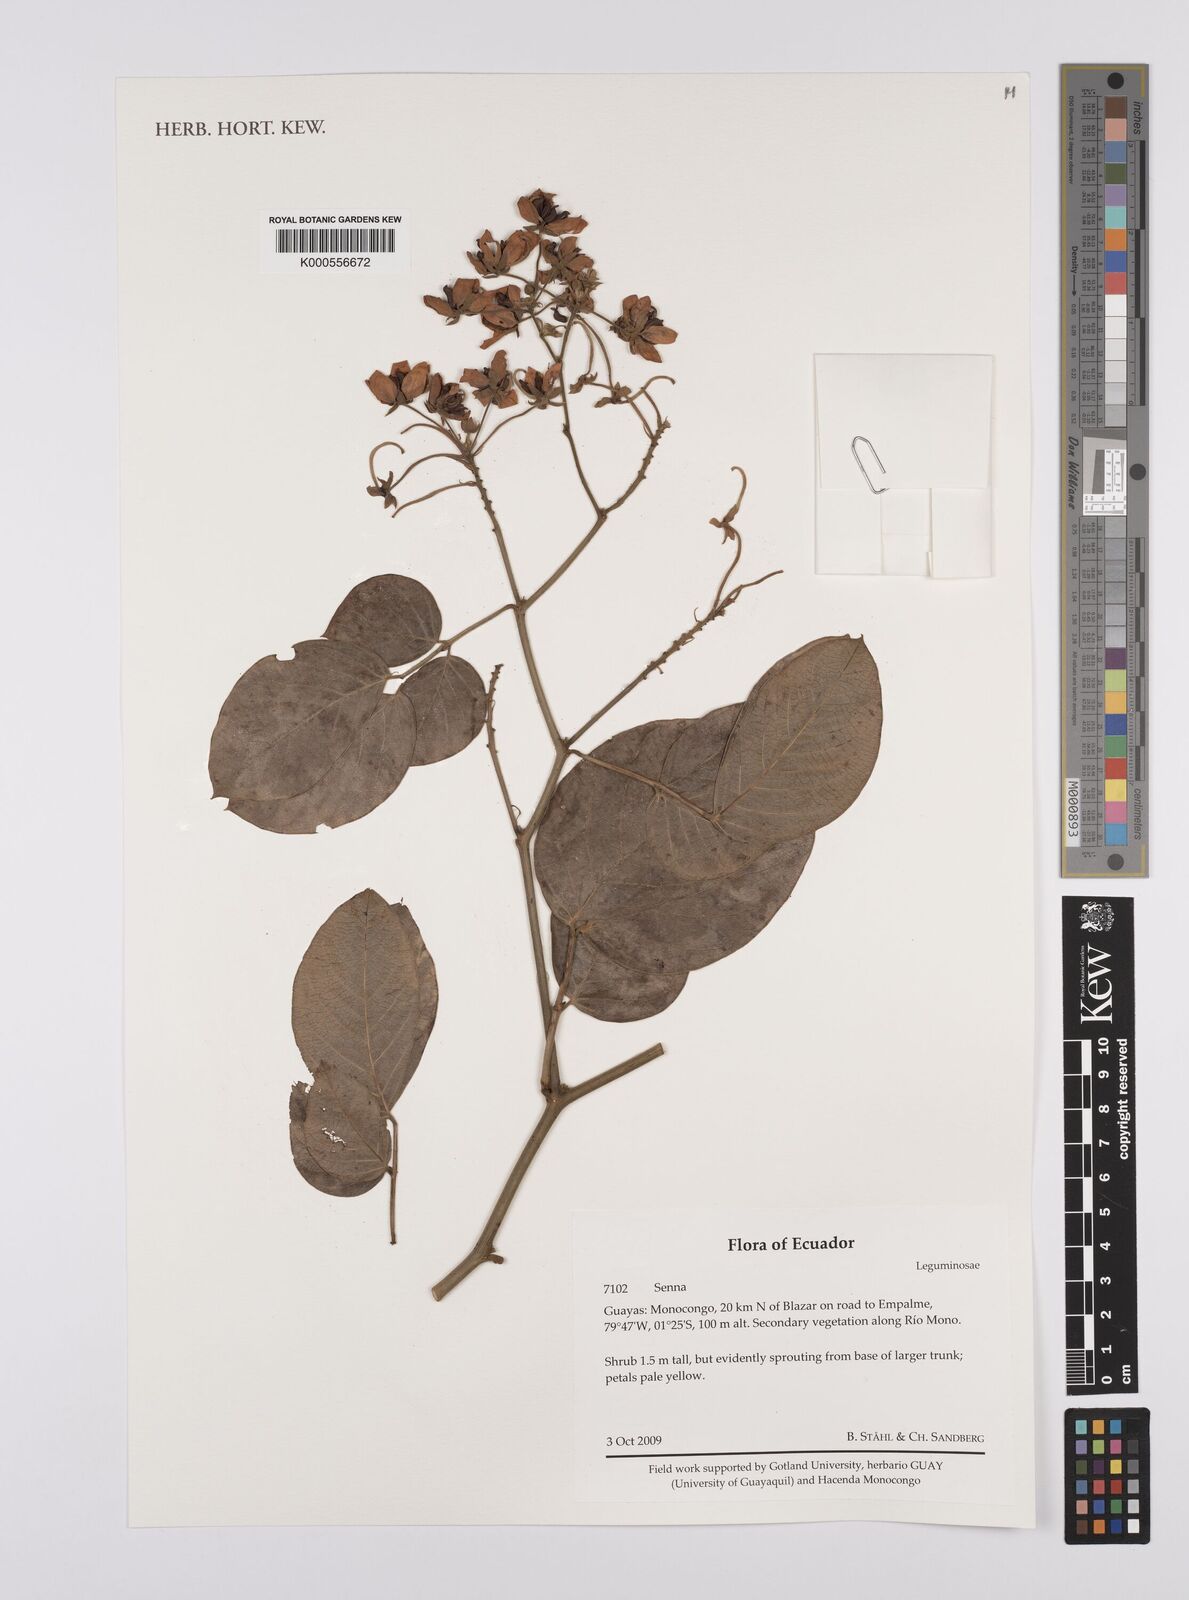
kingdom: Plantae
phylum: Tracheophyta
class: Magnoliopsida
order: Fabales
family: Fabaceae
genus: Senna
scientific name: Senna
